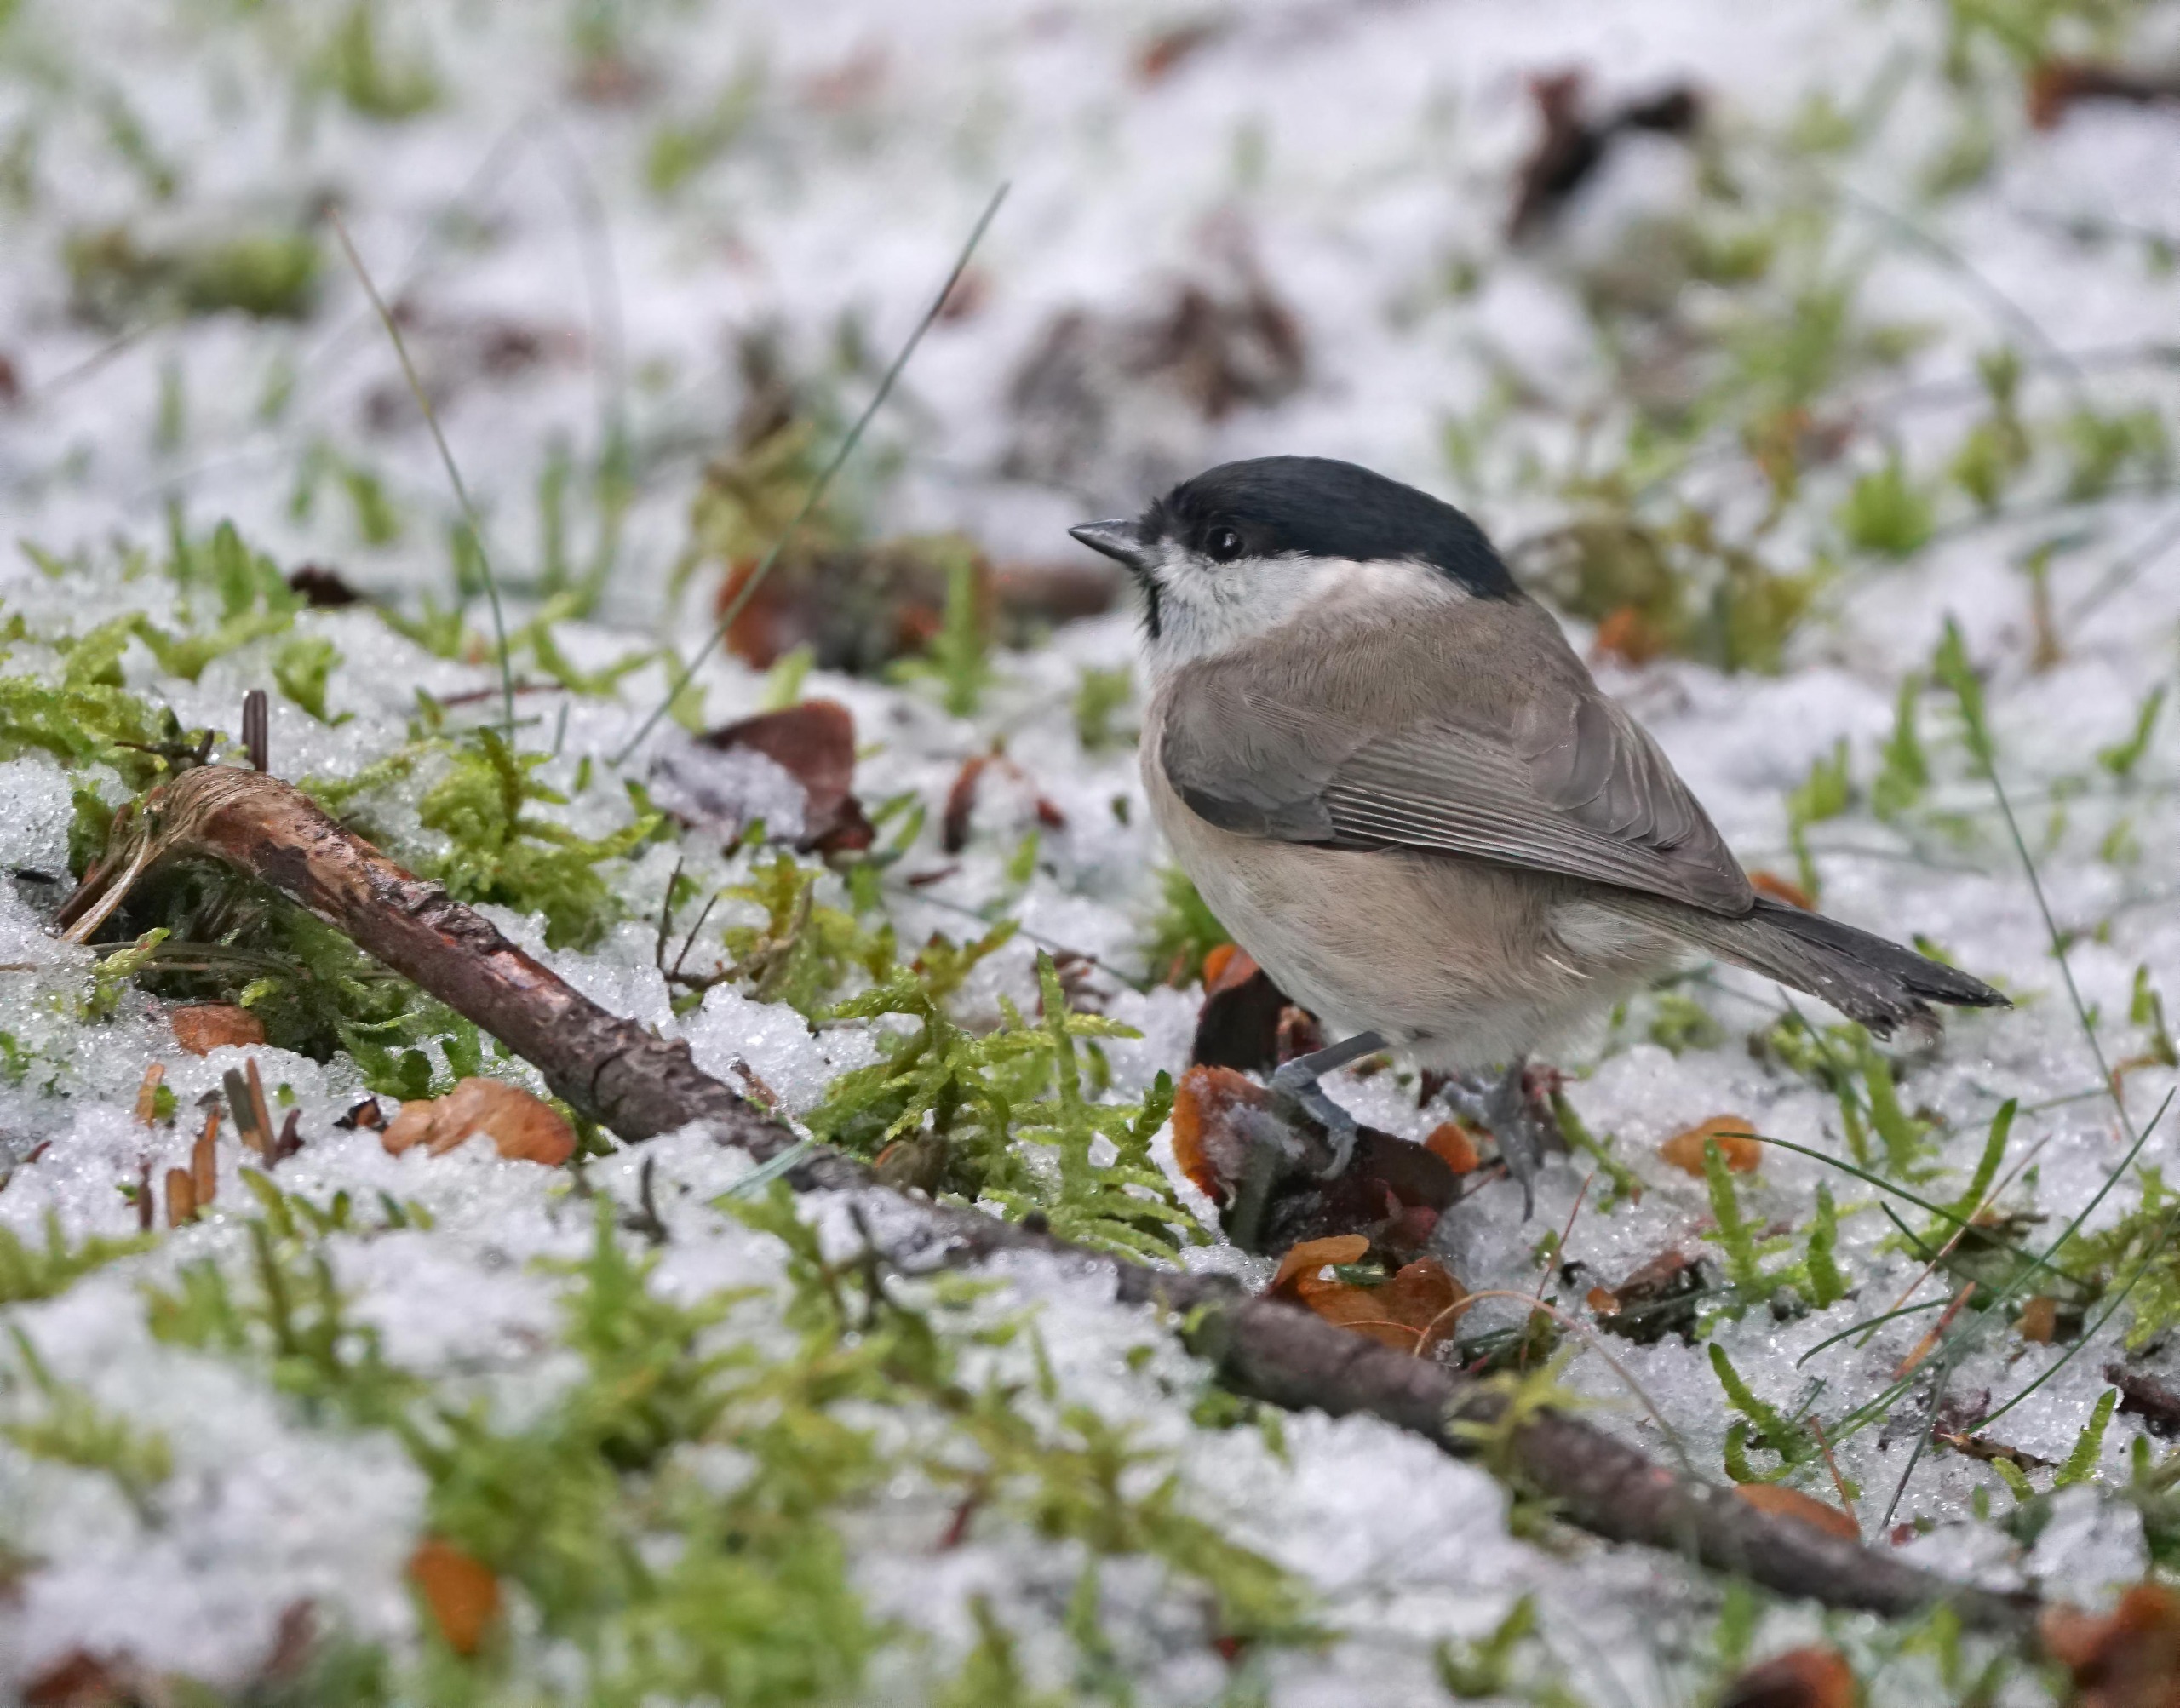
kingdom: Animalia
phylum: Chordata
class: Aves
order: Passeriformes
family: Paridae
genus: Poecile
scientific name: Poecile palustris
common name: Sumpmejse
